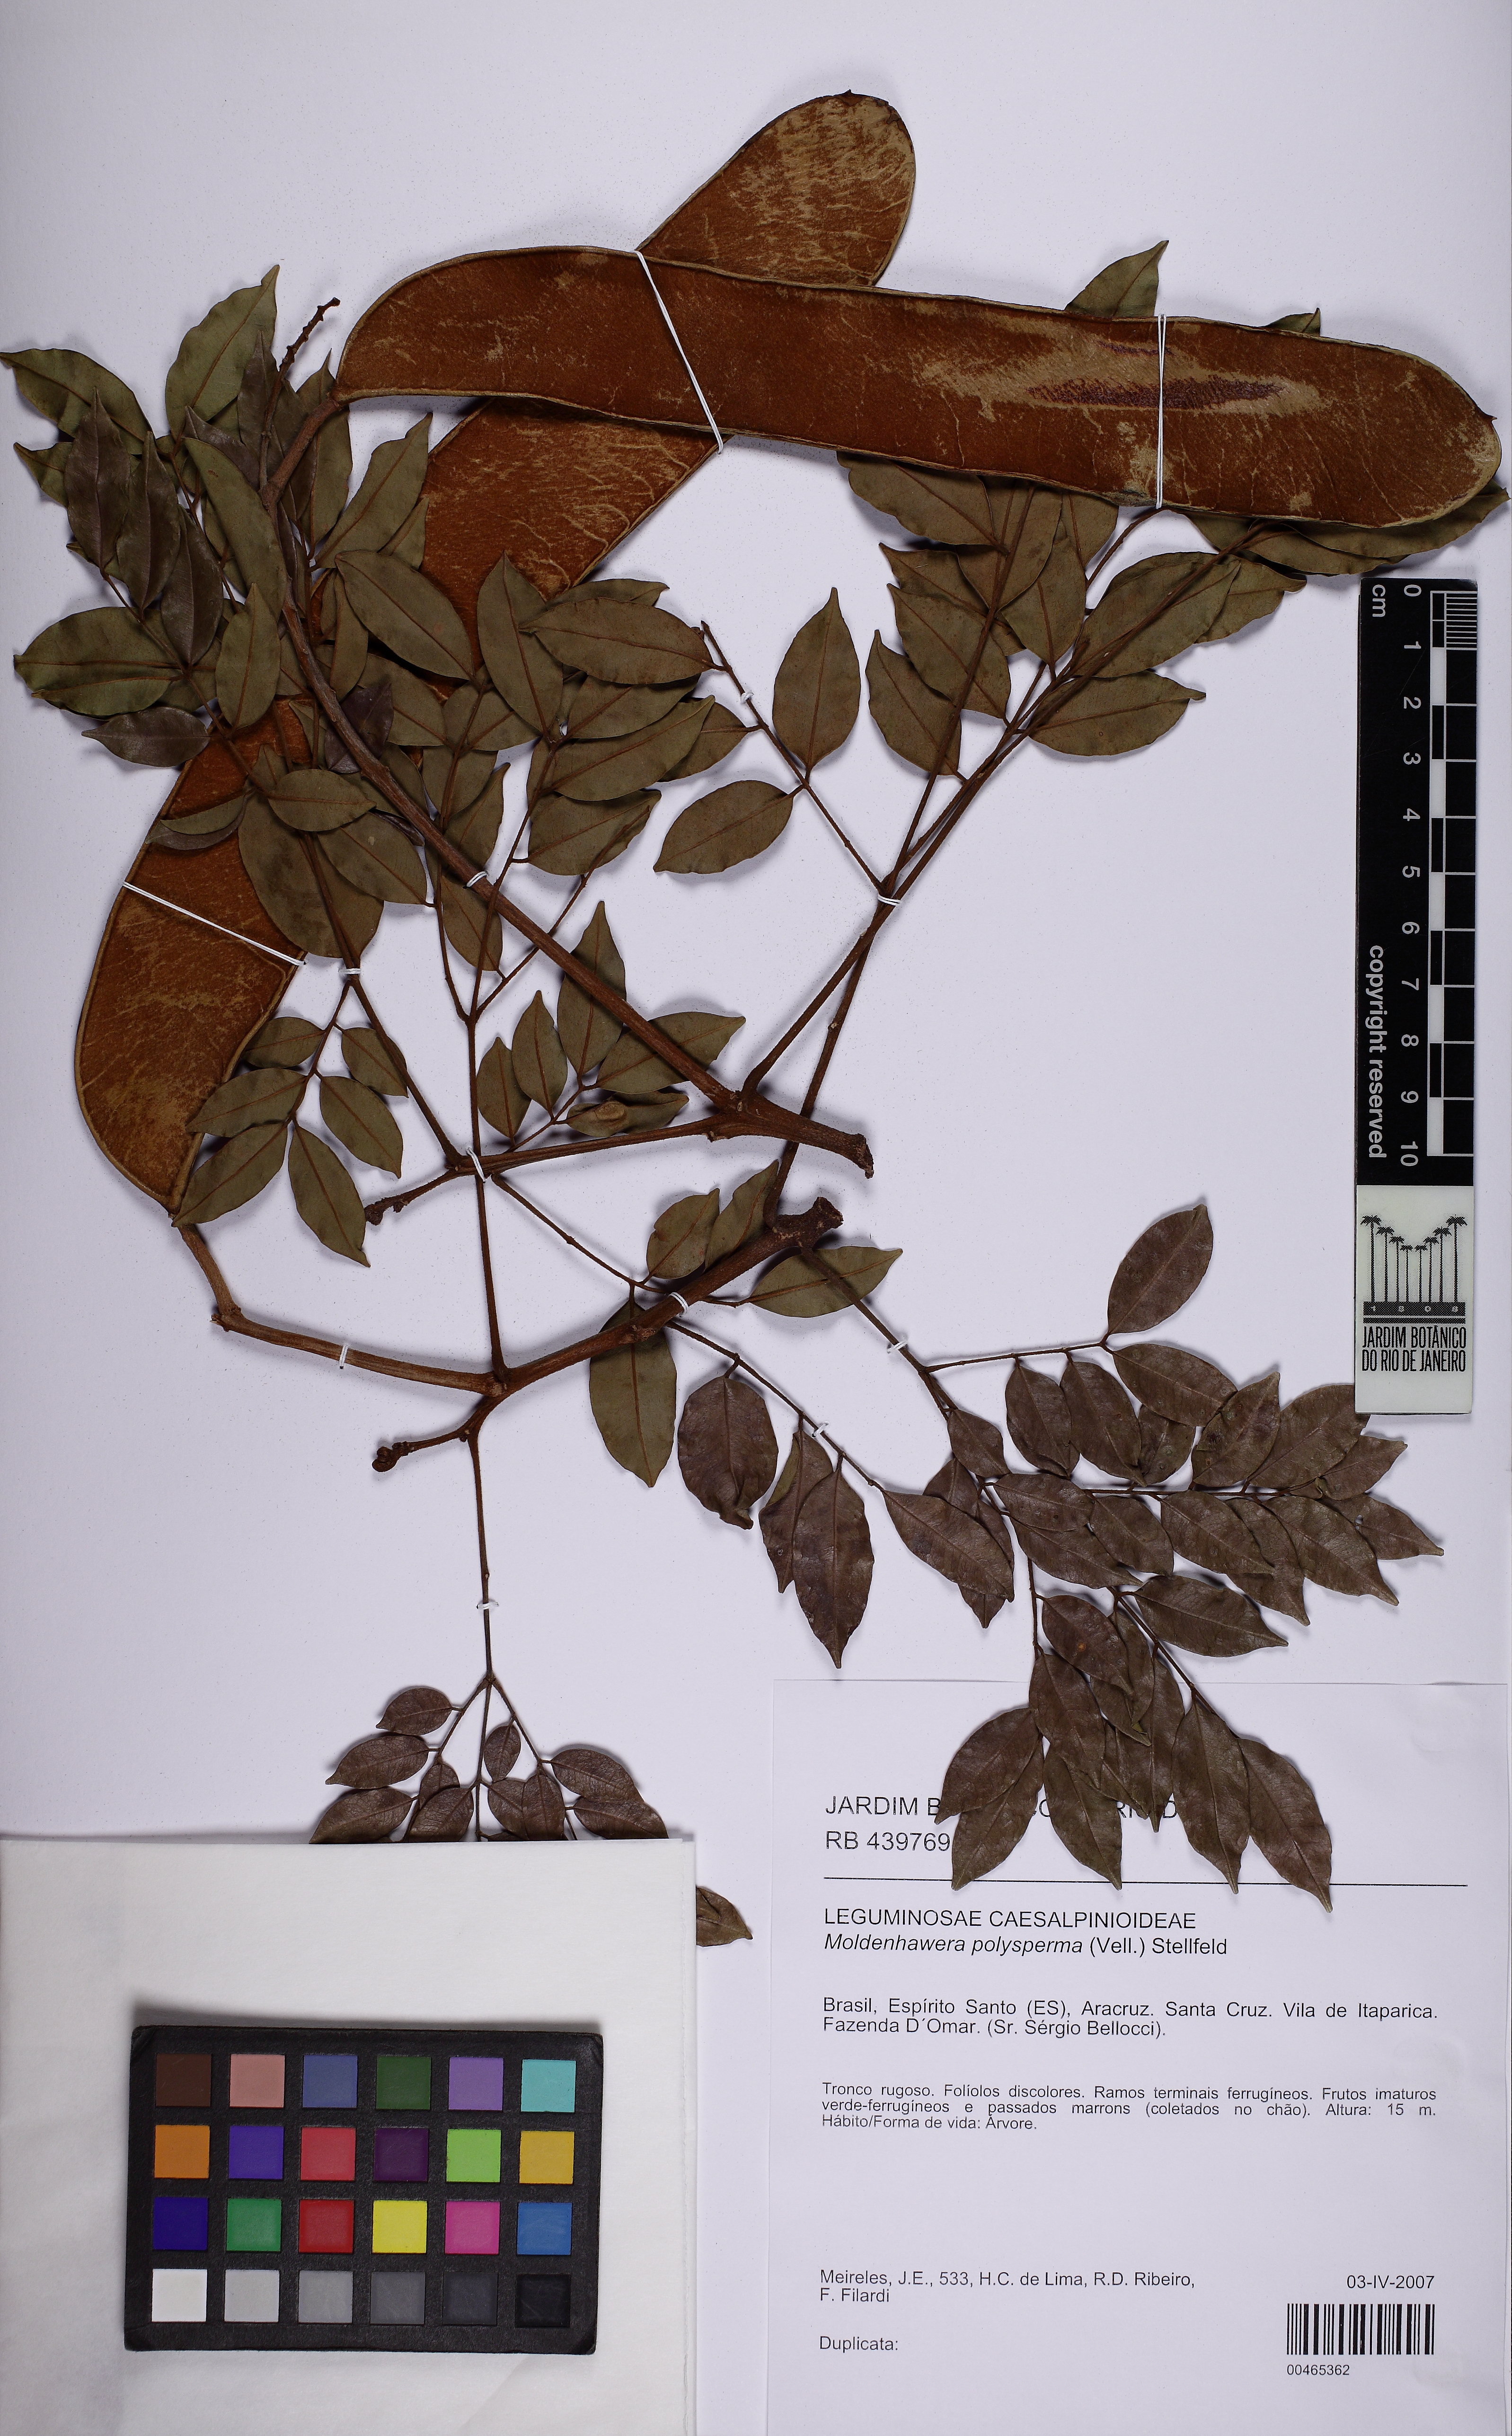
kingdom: Plantae
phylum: Tracheophyta
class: Magnoliopsida
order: Fabales
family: Fabaceae
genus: Moldenhawera
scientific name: Moldenhawera polysperma
